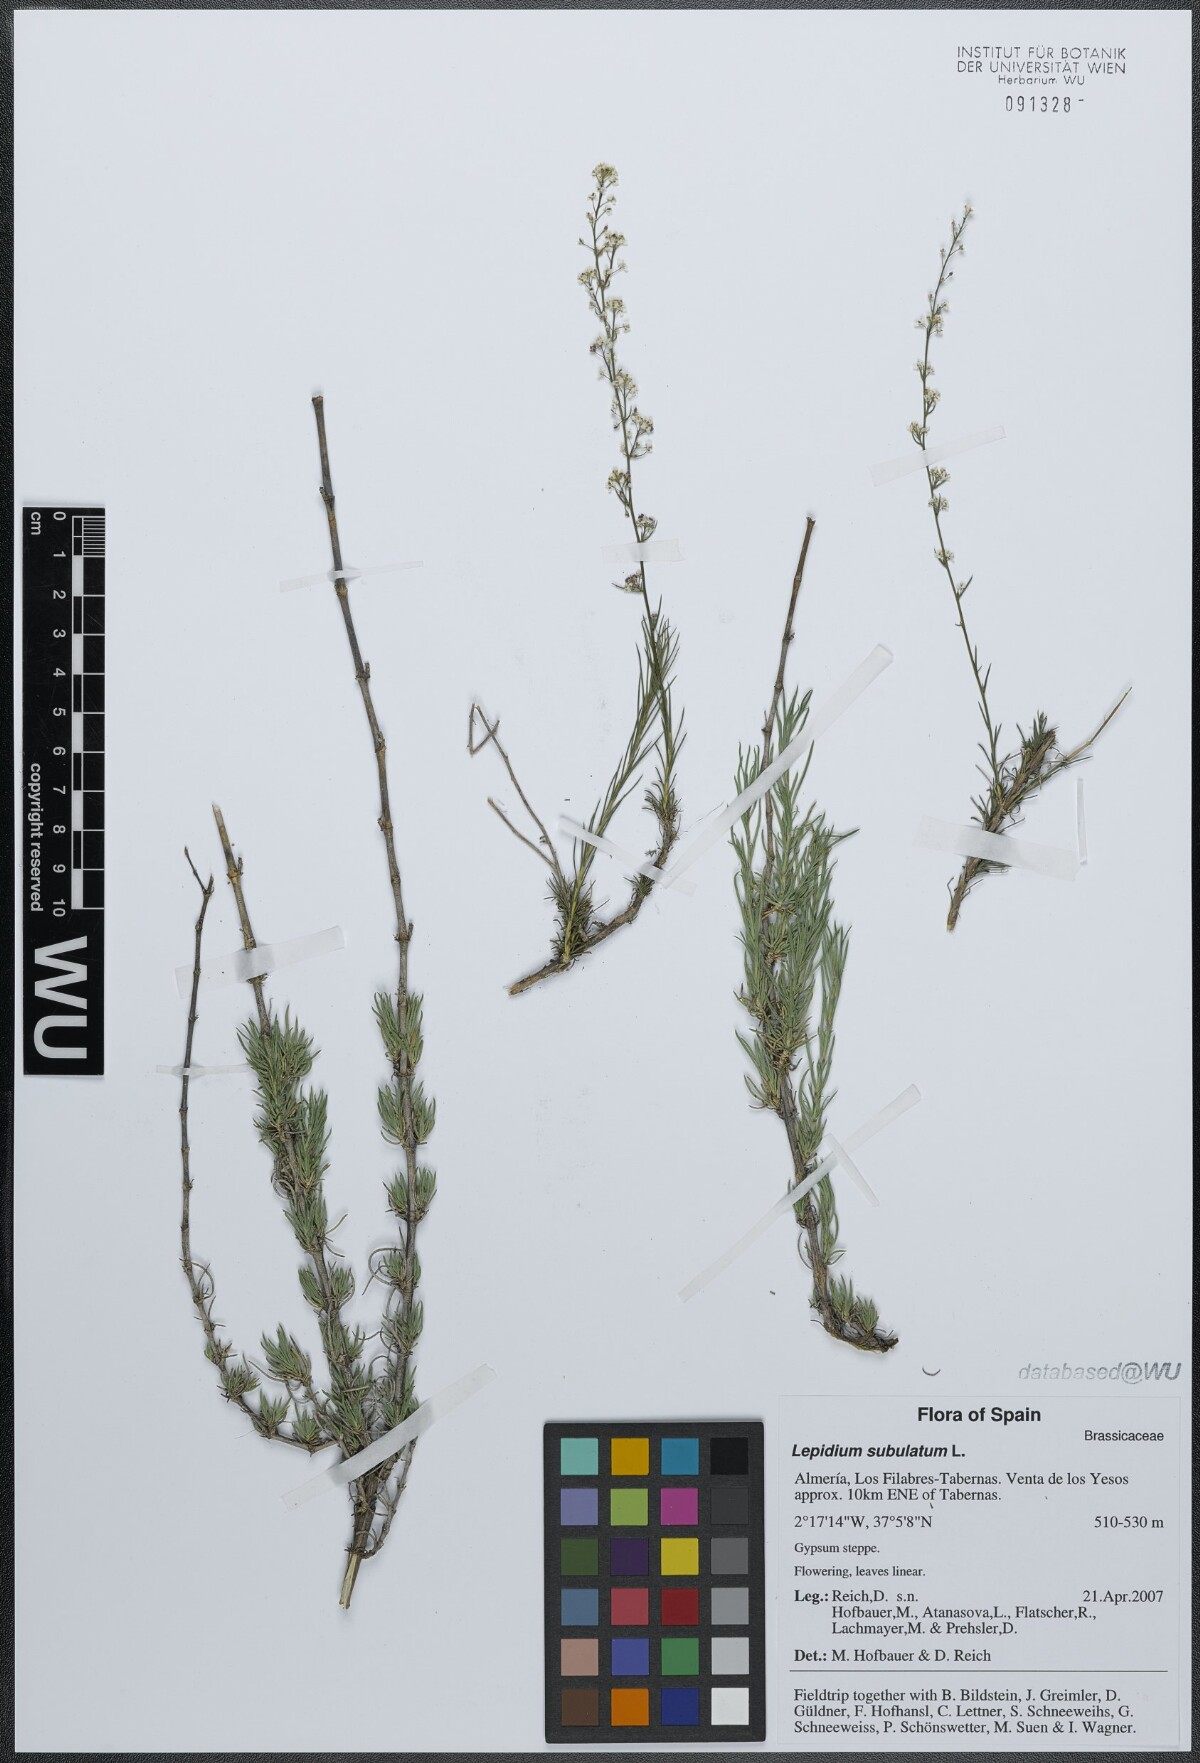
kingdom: Plantae
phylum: Tracheophyta
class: Magnoliopsida
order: Brassicales
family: Brassicaceae
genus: Lepidium
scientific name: Lepidium subulatum
